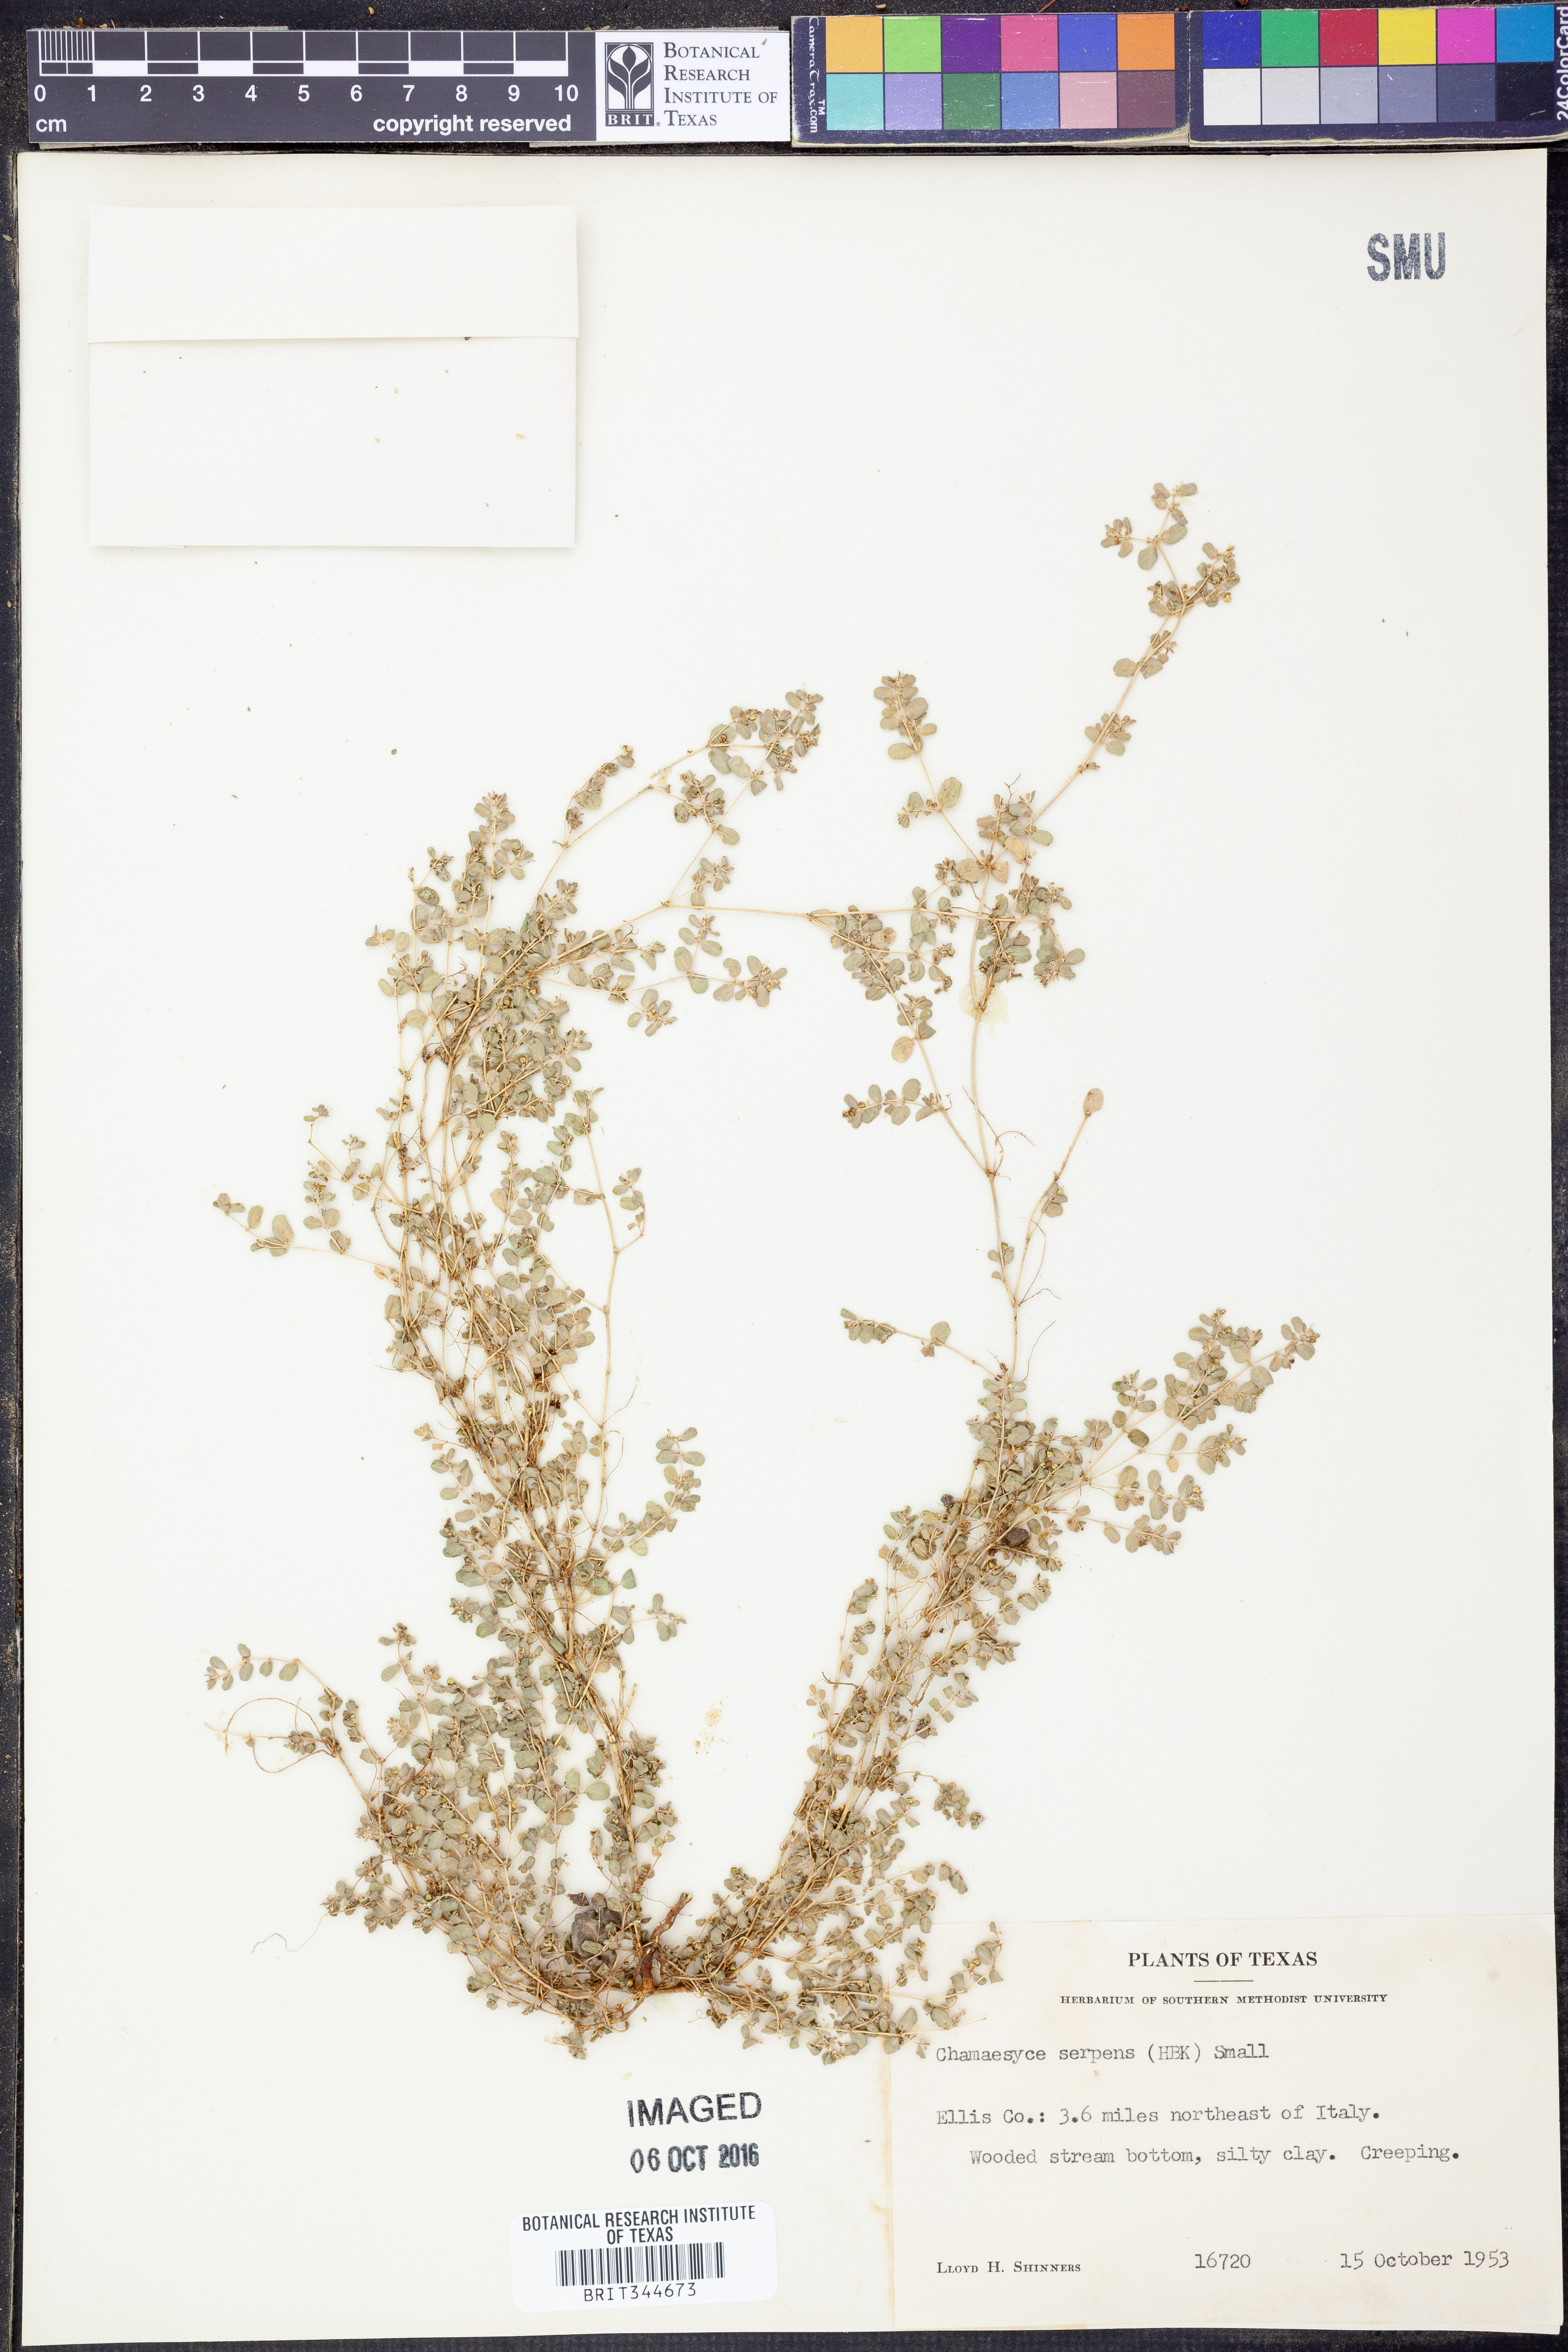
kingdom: Plantae
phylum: Tracheophyta
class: Magnoliopsida
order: Malpighiales
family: Euphorbiaceae
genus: Euphorbia
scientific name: Euphorbia serpens
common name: Matted sandmat
